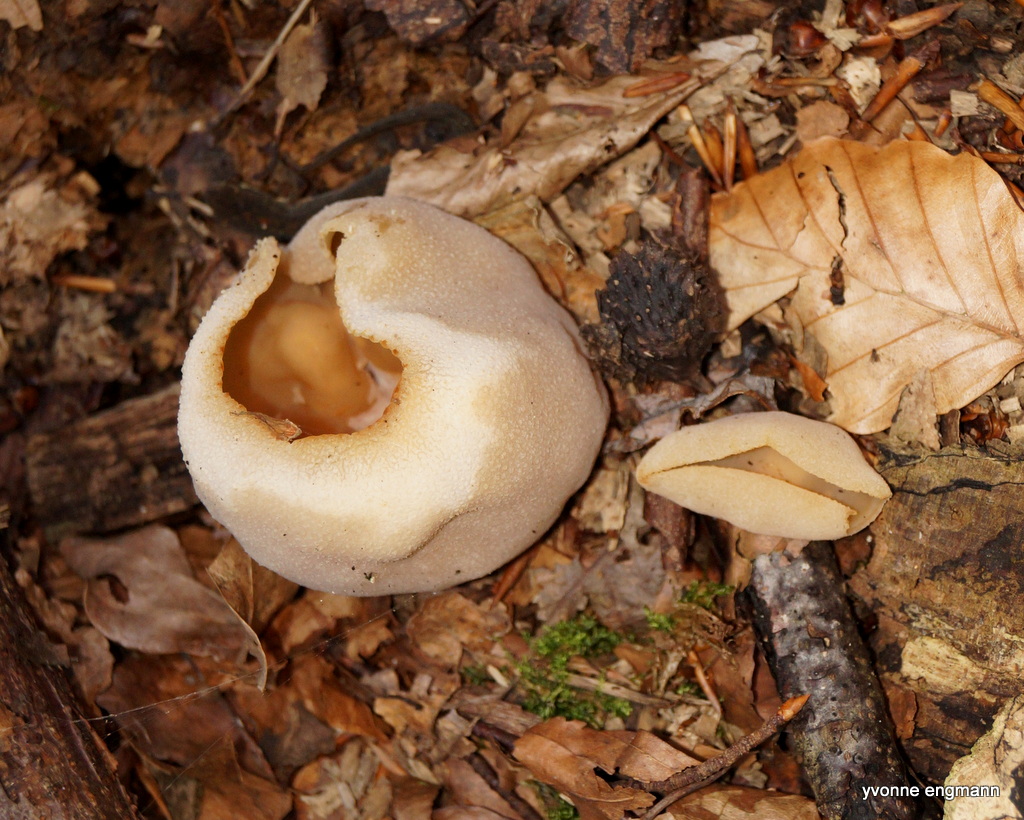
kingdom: Fungi
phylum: Ascomycota
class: Pezizomycetes
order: Pezizales
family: Pezizaceae
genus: Peziza
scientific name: Peziza
